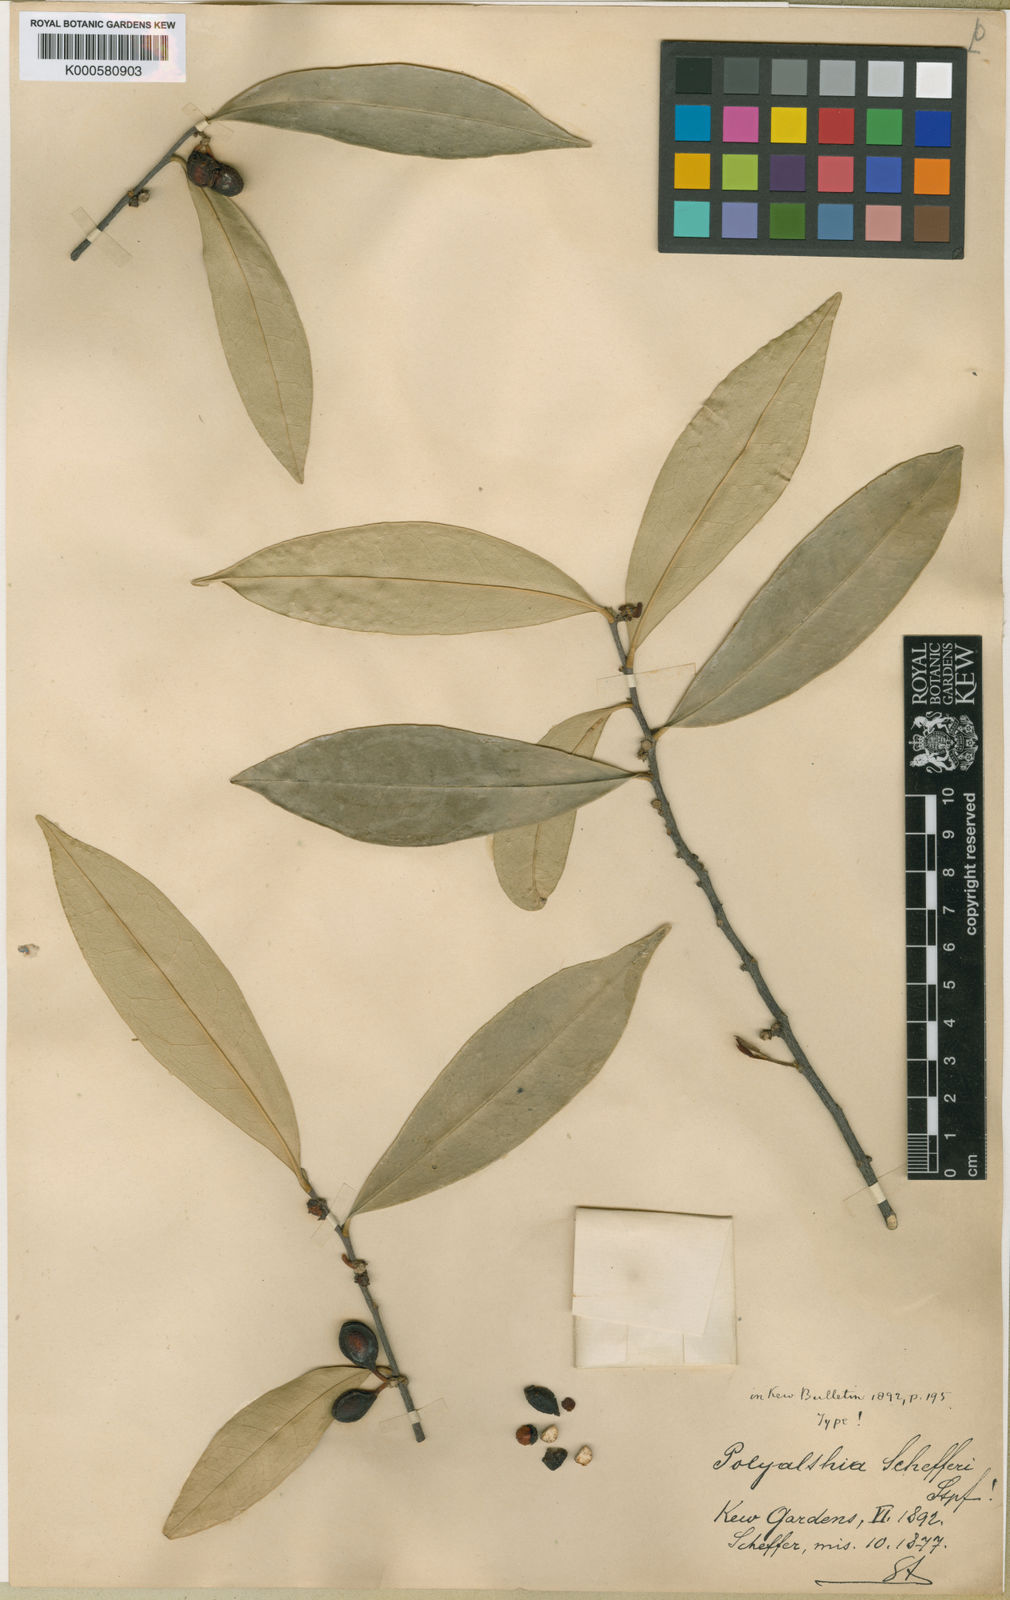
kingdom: Plantae
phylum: Tracheophyta
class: Magnoliopsida
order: Magnoliales
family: Annonaceae
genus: Marsypopetalum
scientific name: Marsypopetalum littorale
